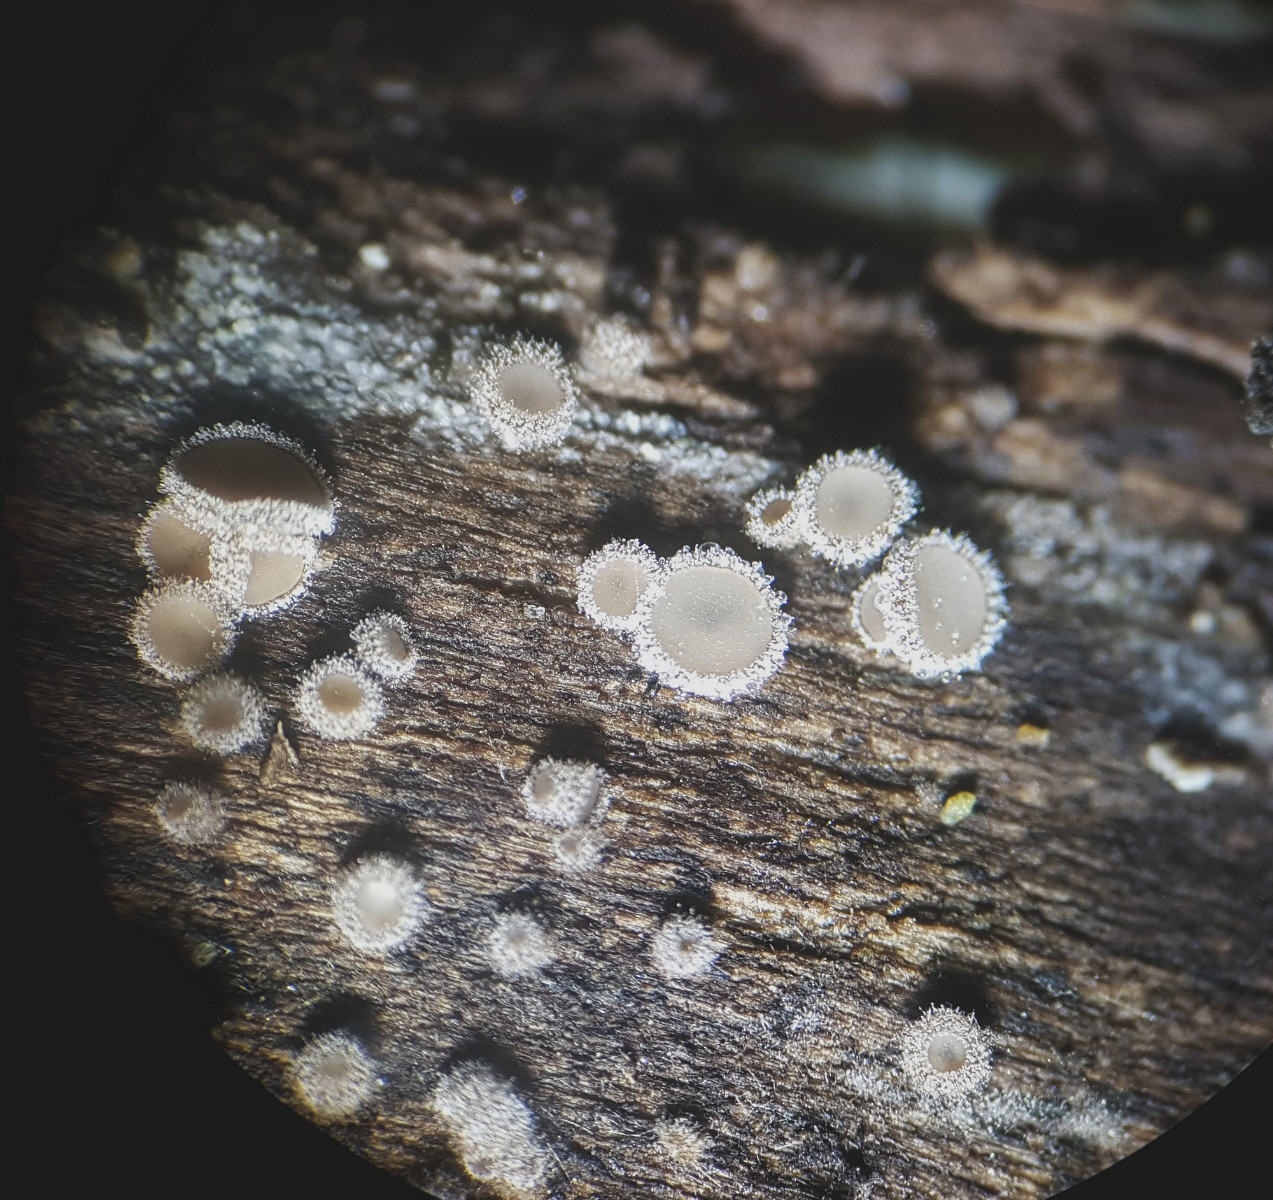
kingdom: Fungi
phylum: Ascomycota
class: Leotiomycetes
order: Helotiales
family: Solenopeziaceae
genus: Lasiobelonium
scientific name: Lasiobelonium variegatum
